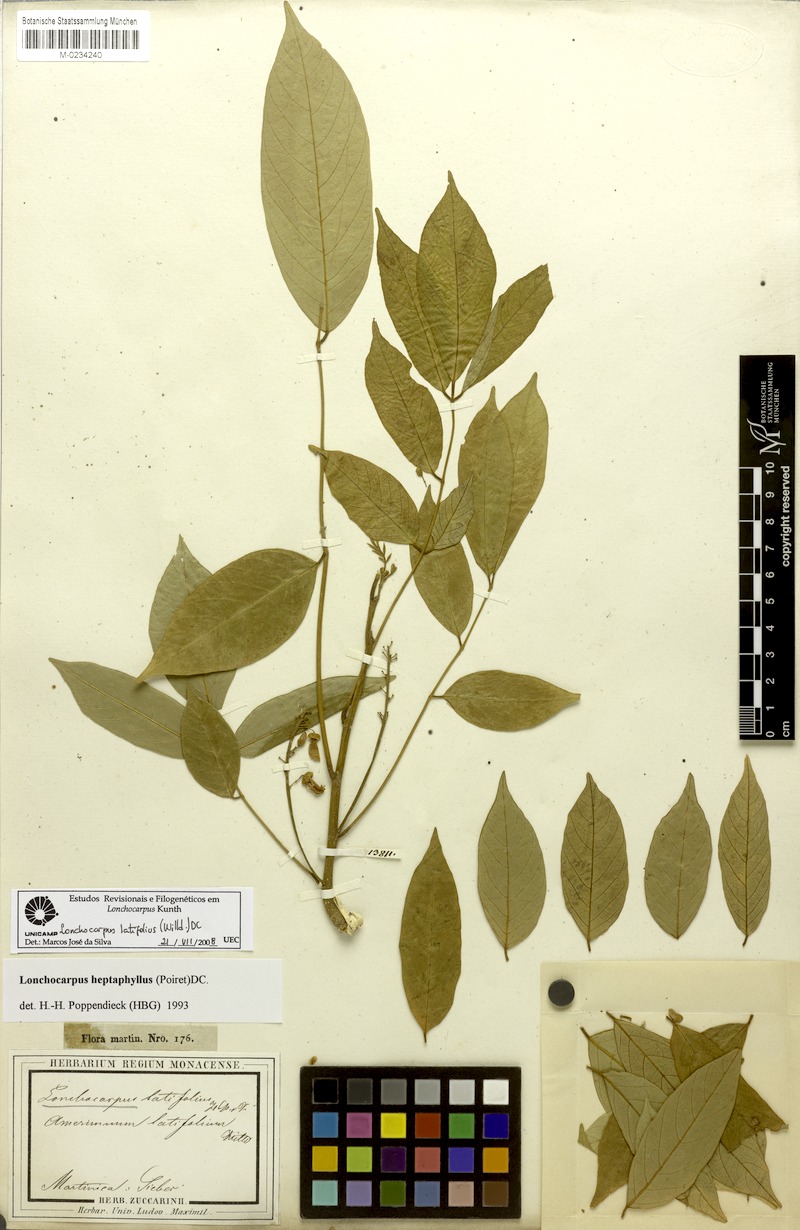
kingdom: Plantae
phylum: Tracheophyta
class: Magnoliopsida
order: Fabales
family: Fabaceae
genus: Lonchocarpus
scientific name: Lonchocarpus heptaphyllus
